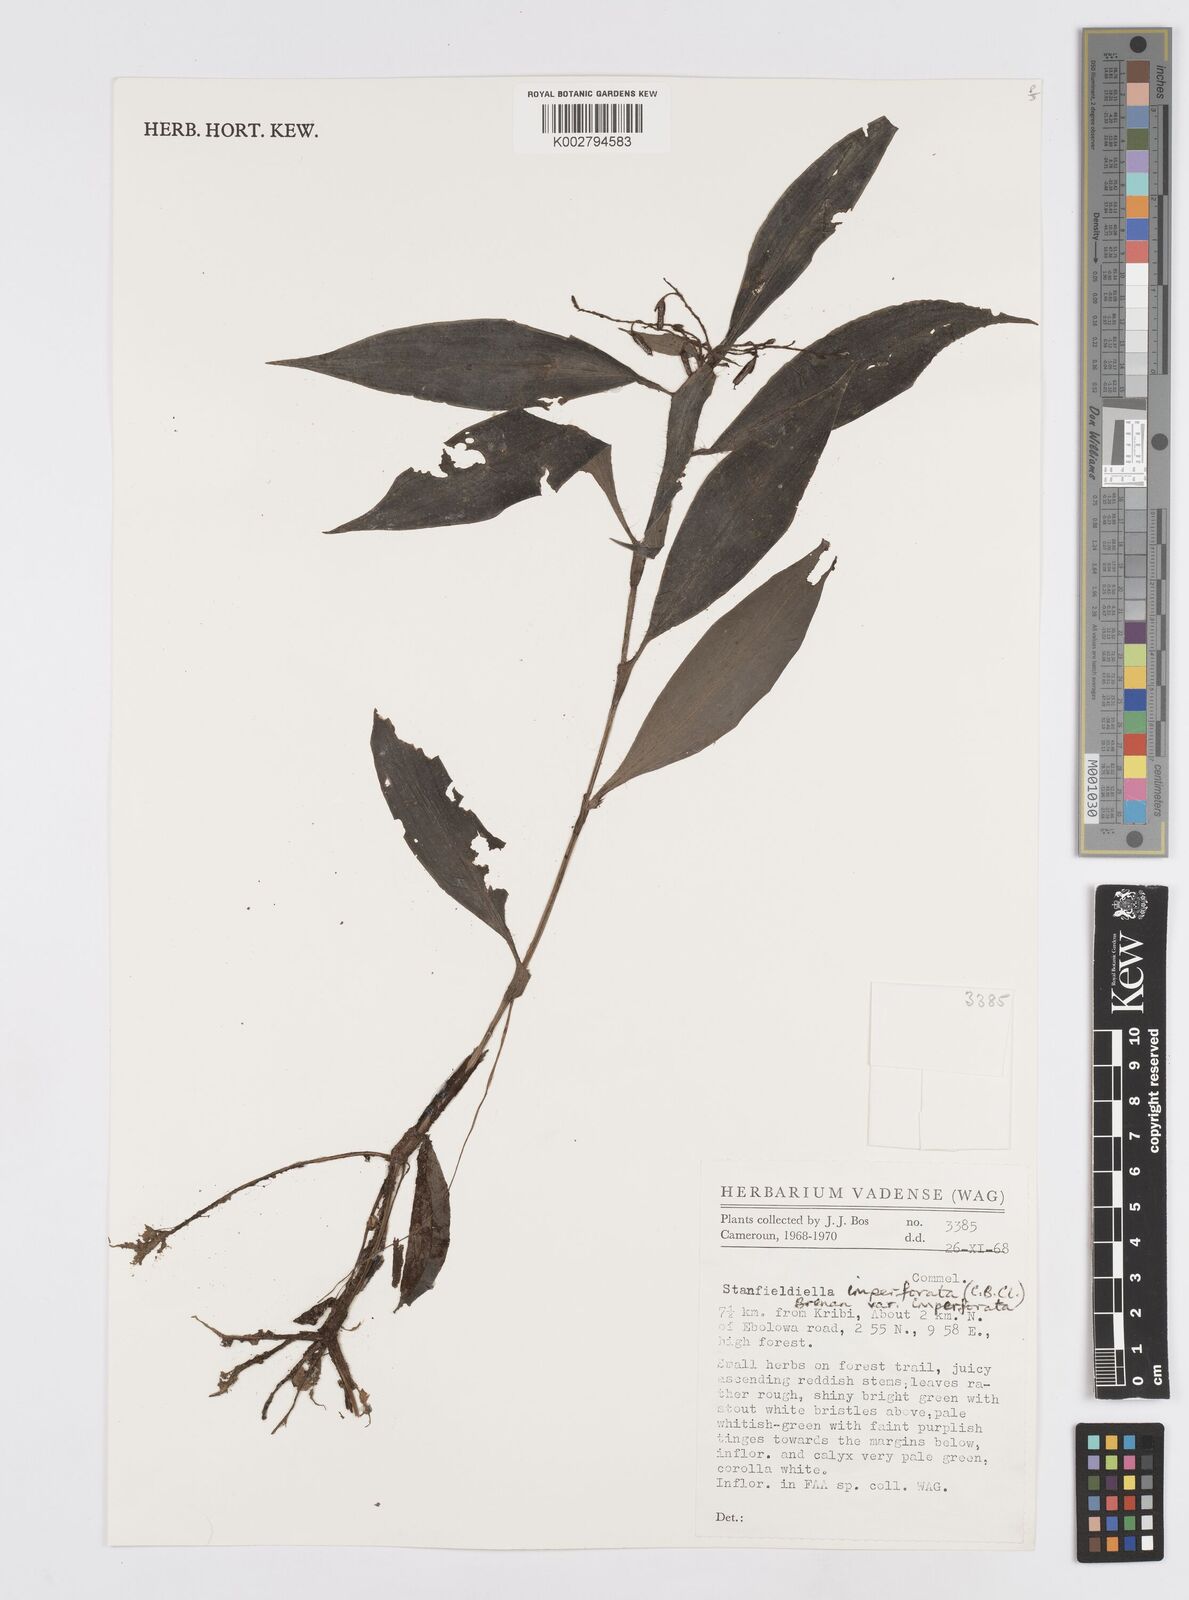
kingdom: Plantae
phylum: Tracheophyta
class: Liliopsida
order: Commelinales
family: Commelinaceae
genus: Stanfieldiella
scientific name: Stanfieldiella imperforata
